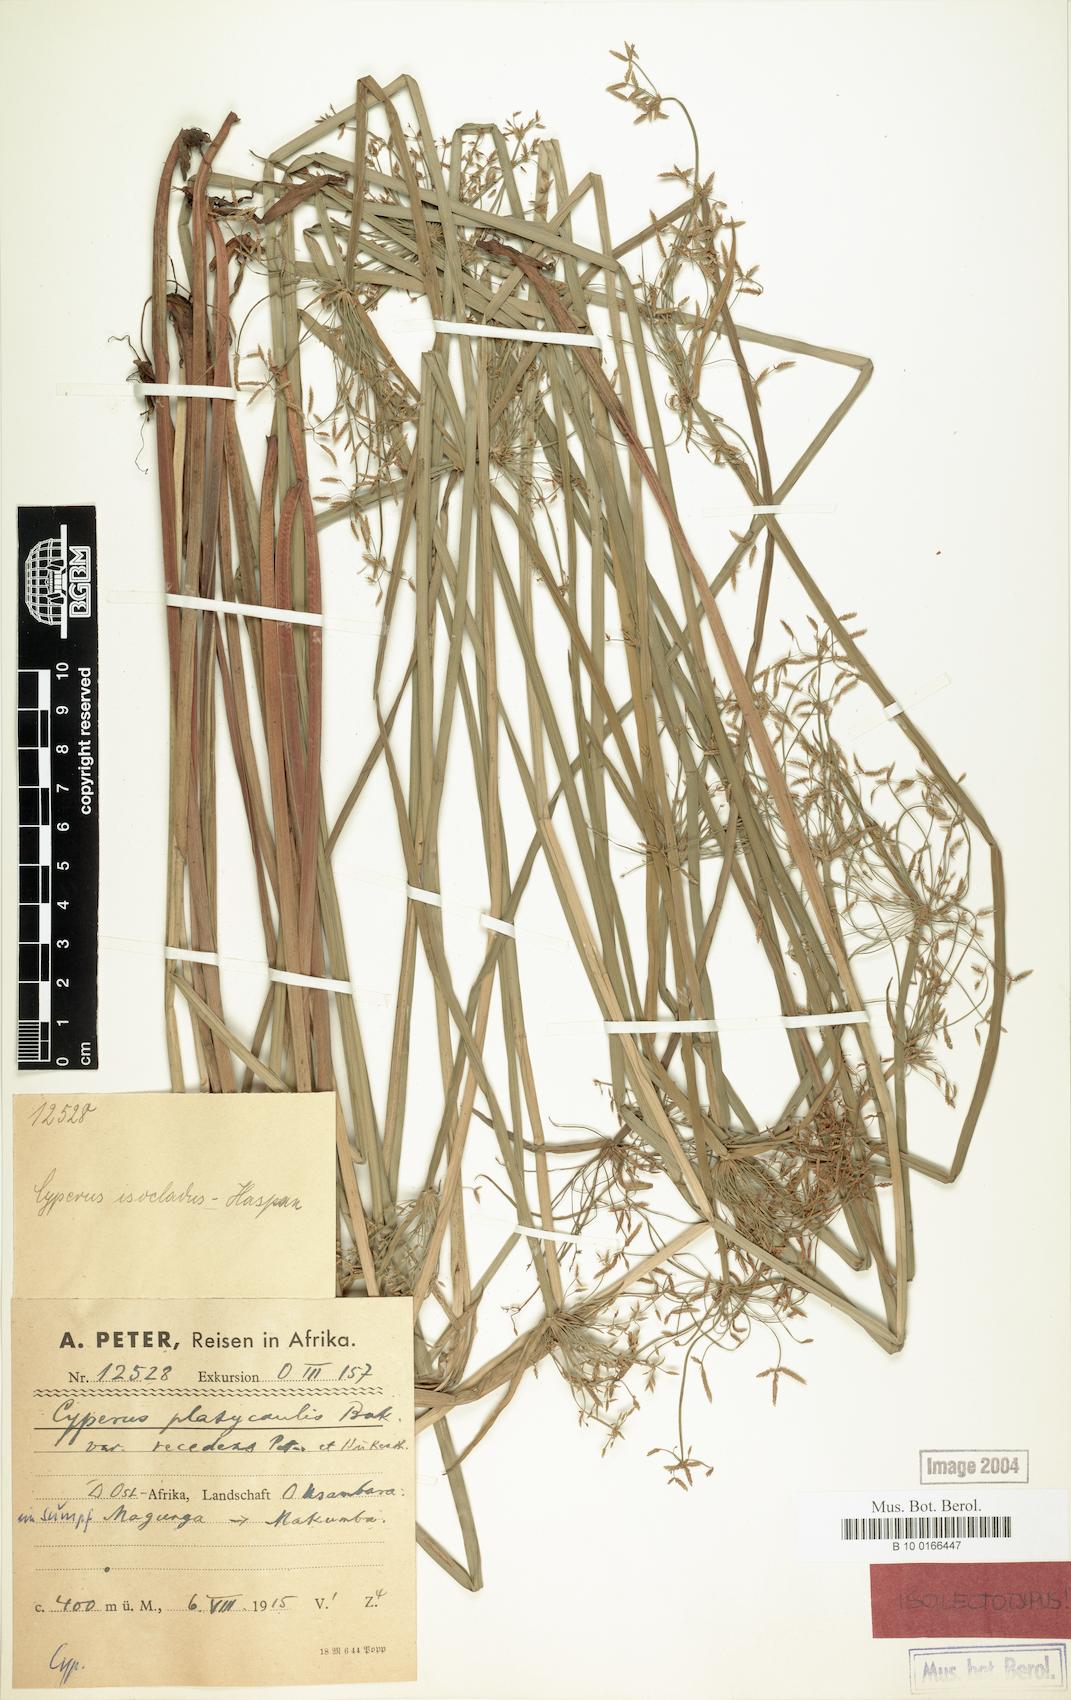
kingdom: Plantae
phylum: Tracheophyta
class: Liliopsida
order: Poales
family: Cyperaceae
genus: Cyperus
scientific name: Cyperus denudatus
